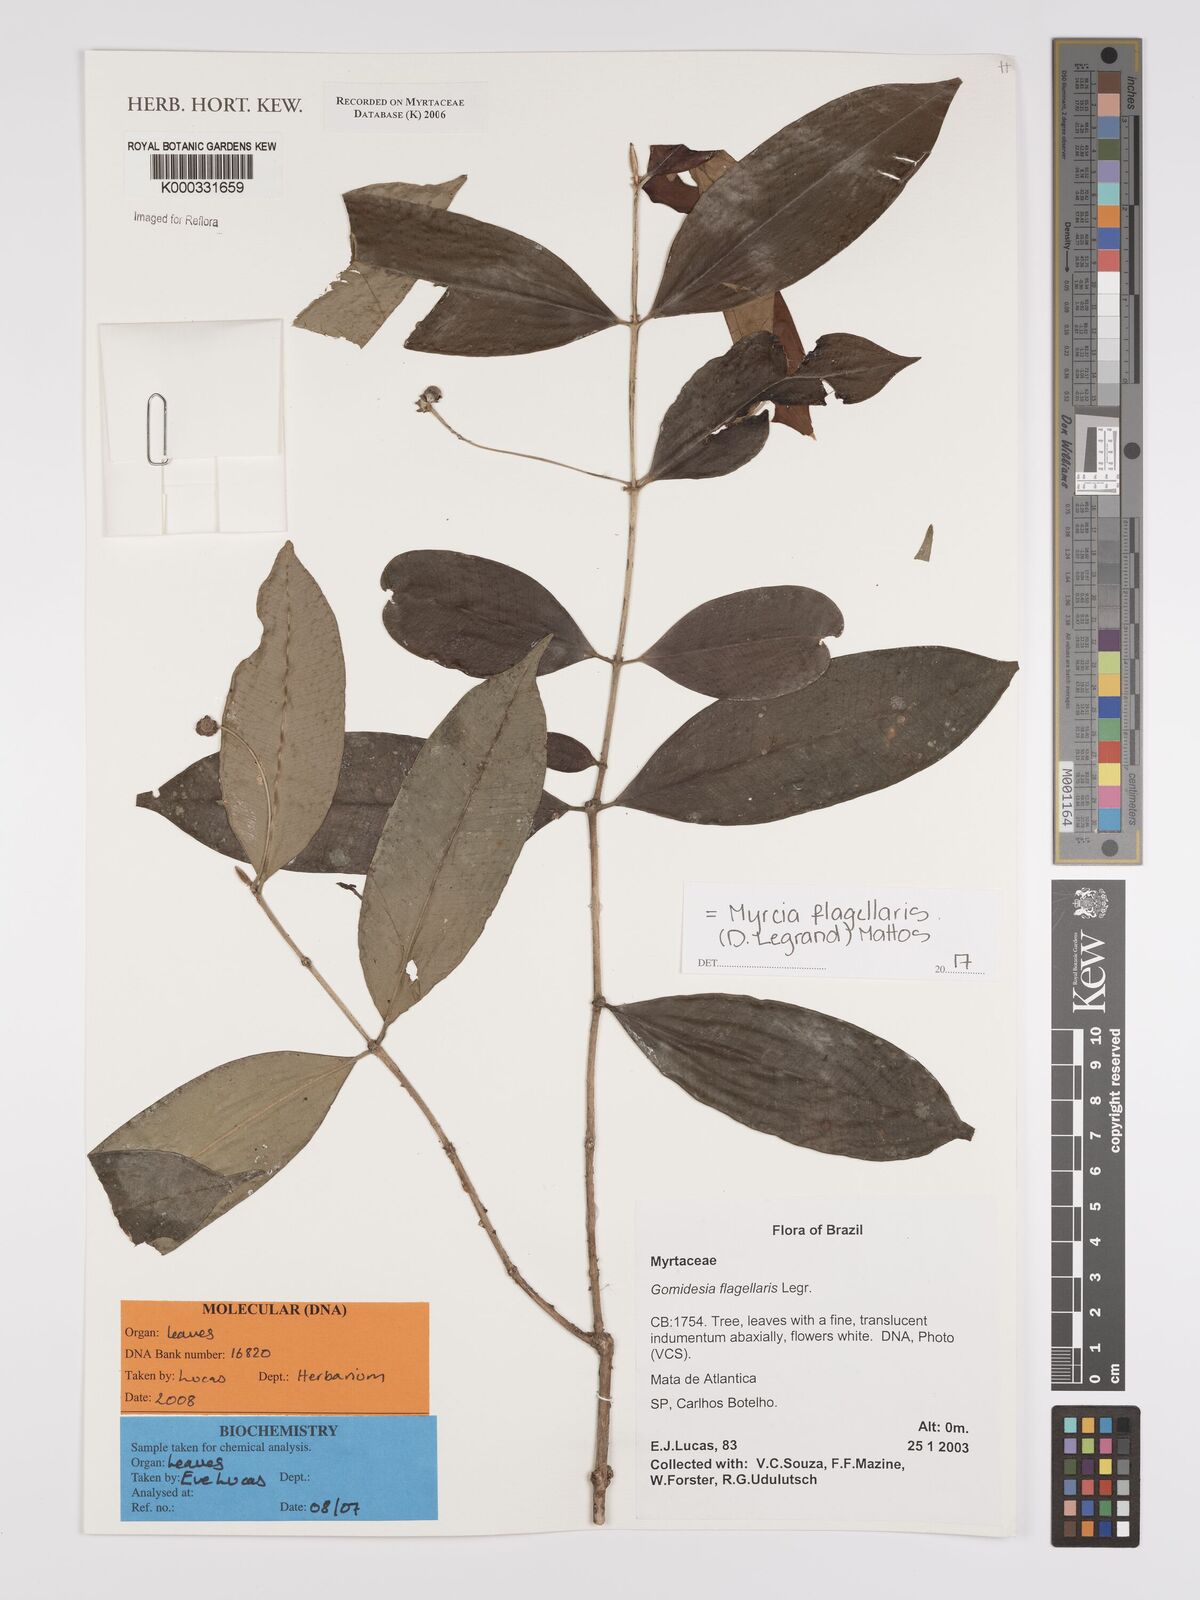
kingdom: Plantae
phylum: Tracheophyta
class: Magnoliopsida
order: Myrtales
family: Myrtaceae
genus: Myrcia
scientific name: Myrcia flagellaris
